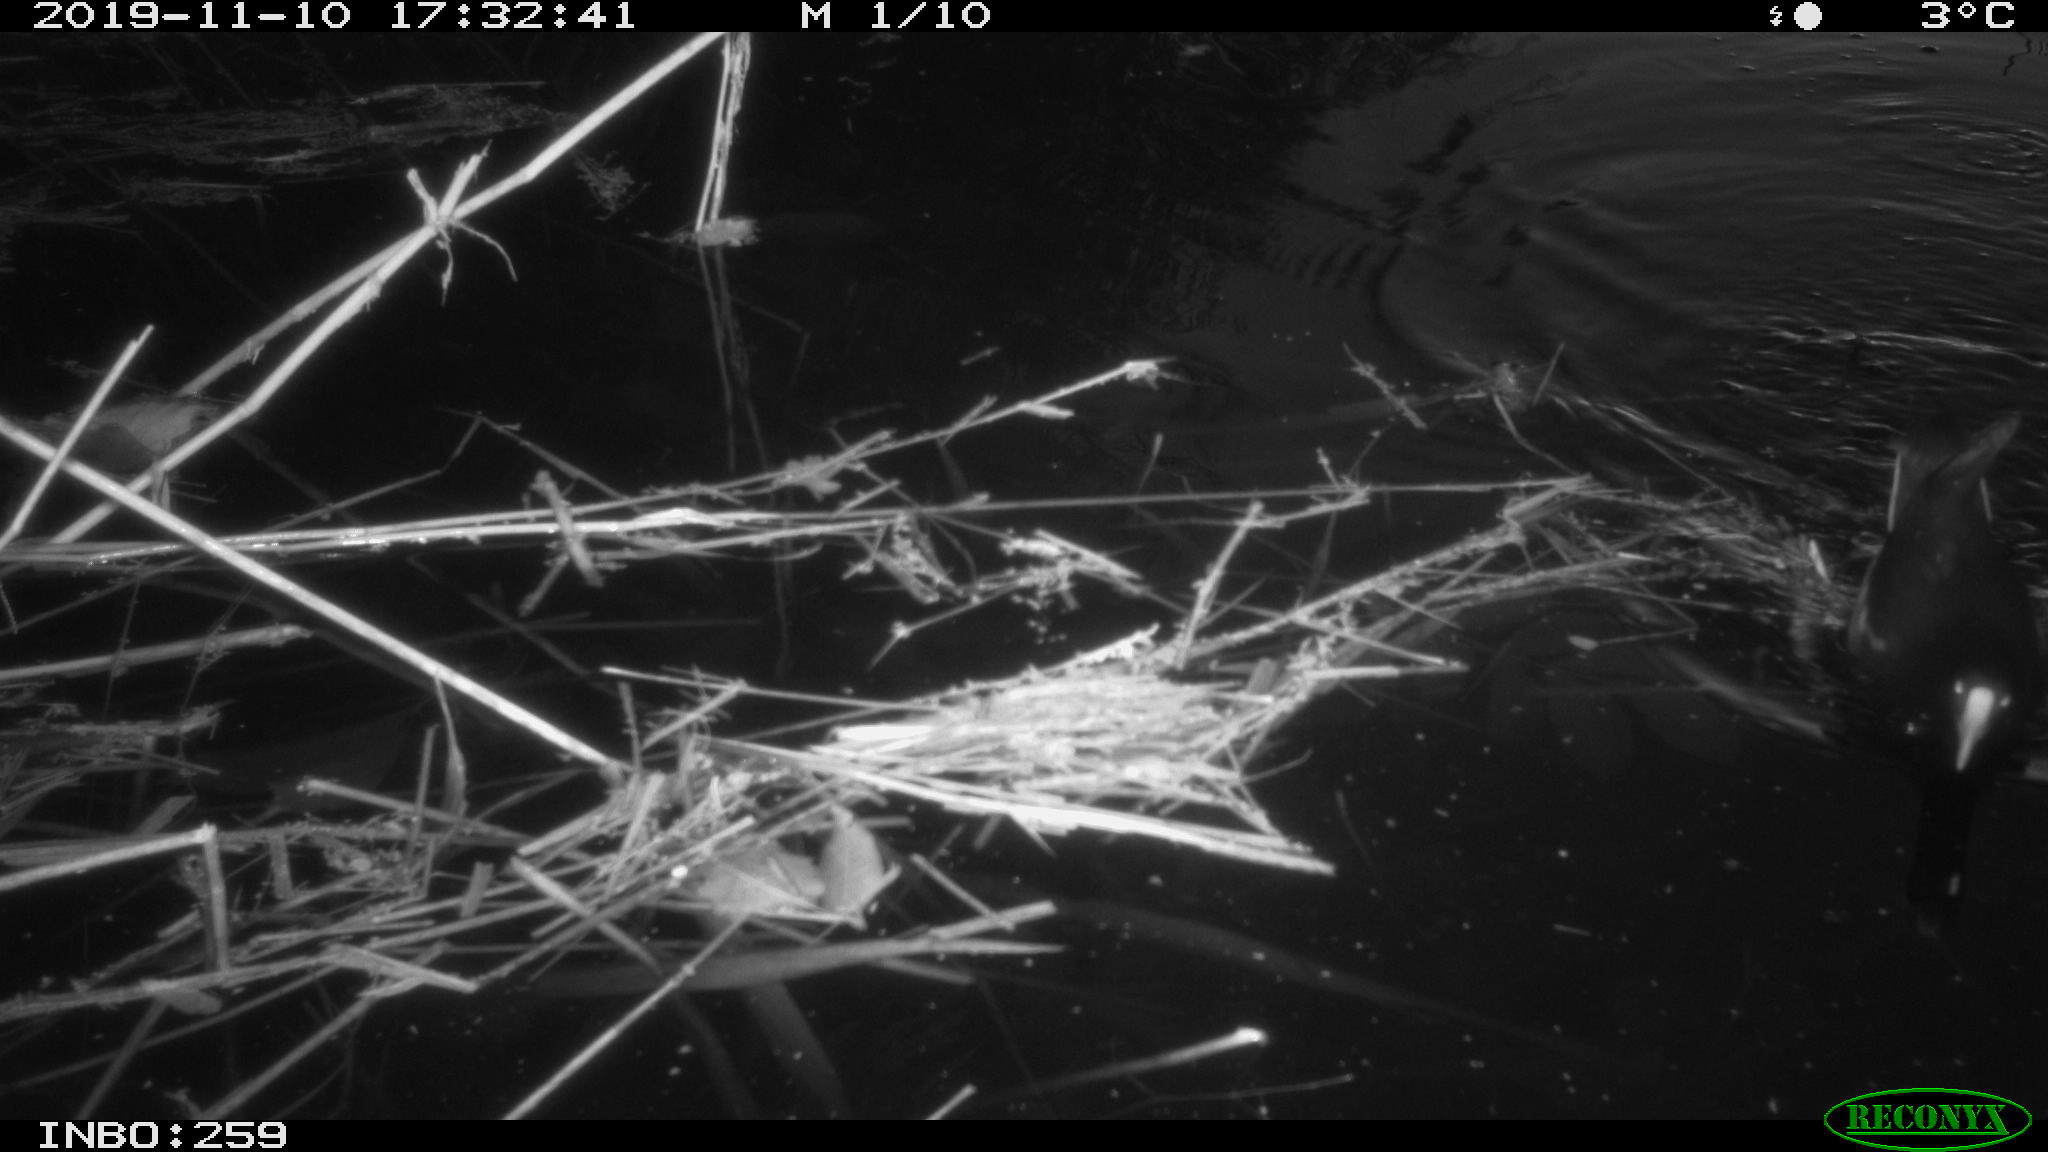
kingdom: Animalia
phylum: Chordata
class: Aves
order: Gruiformes
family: Rallidae
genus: Gallinula
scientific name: Gallinula chloropus
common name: Common moorhen
